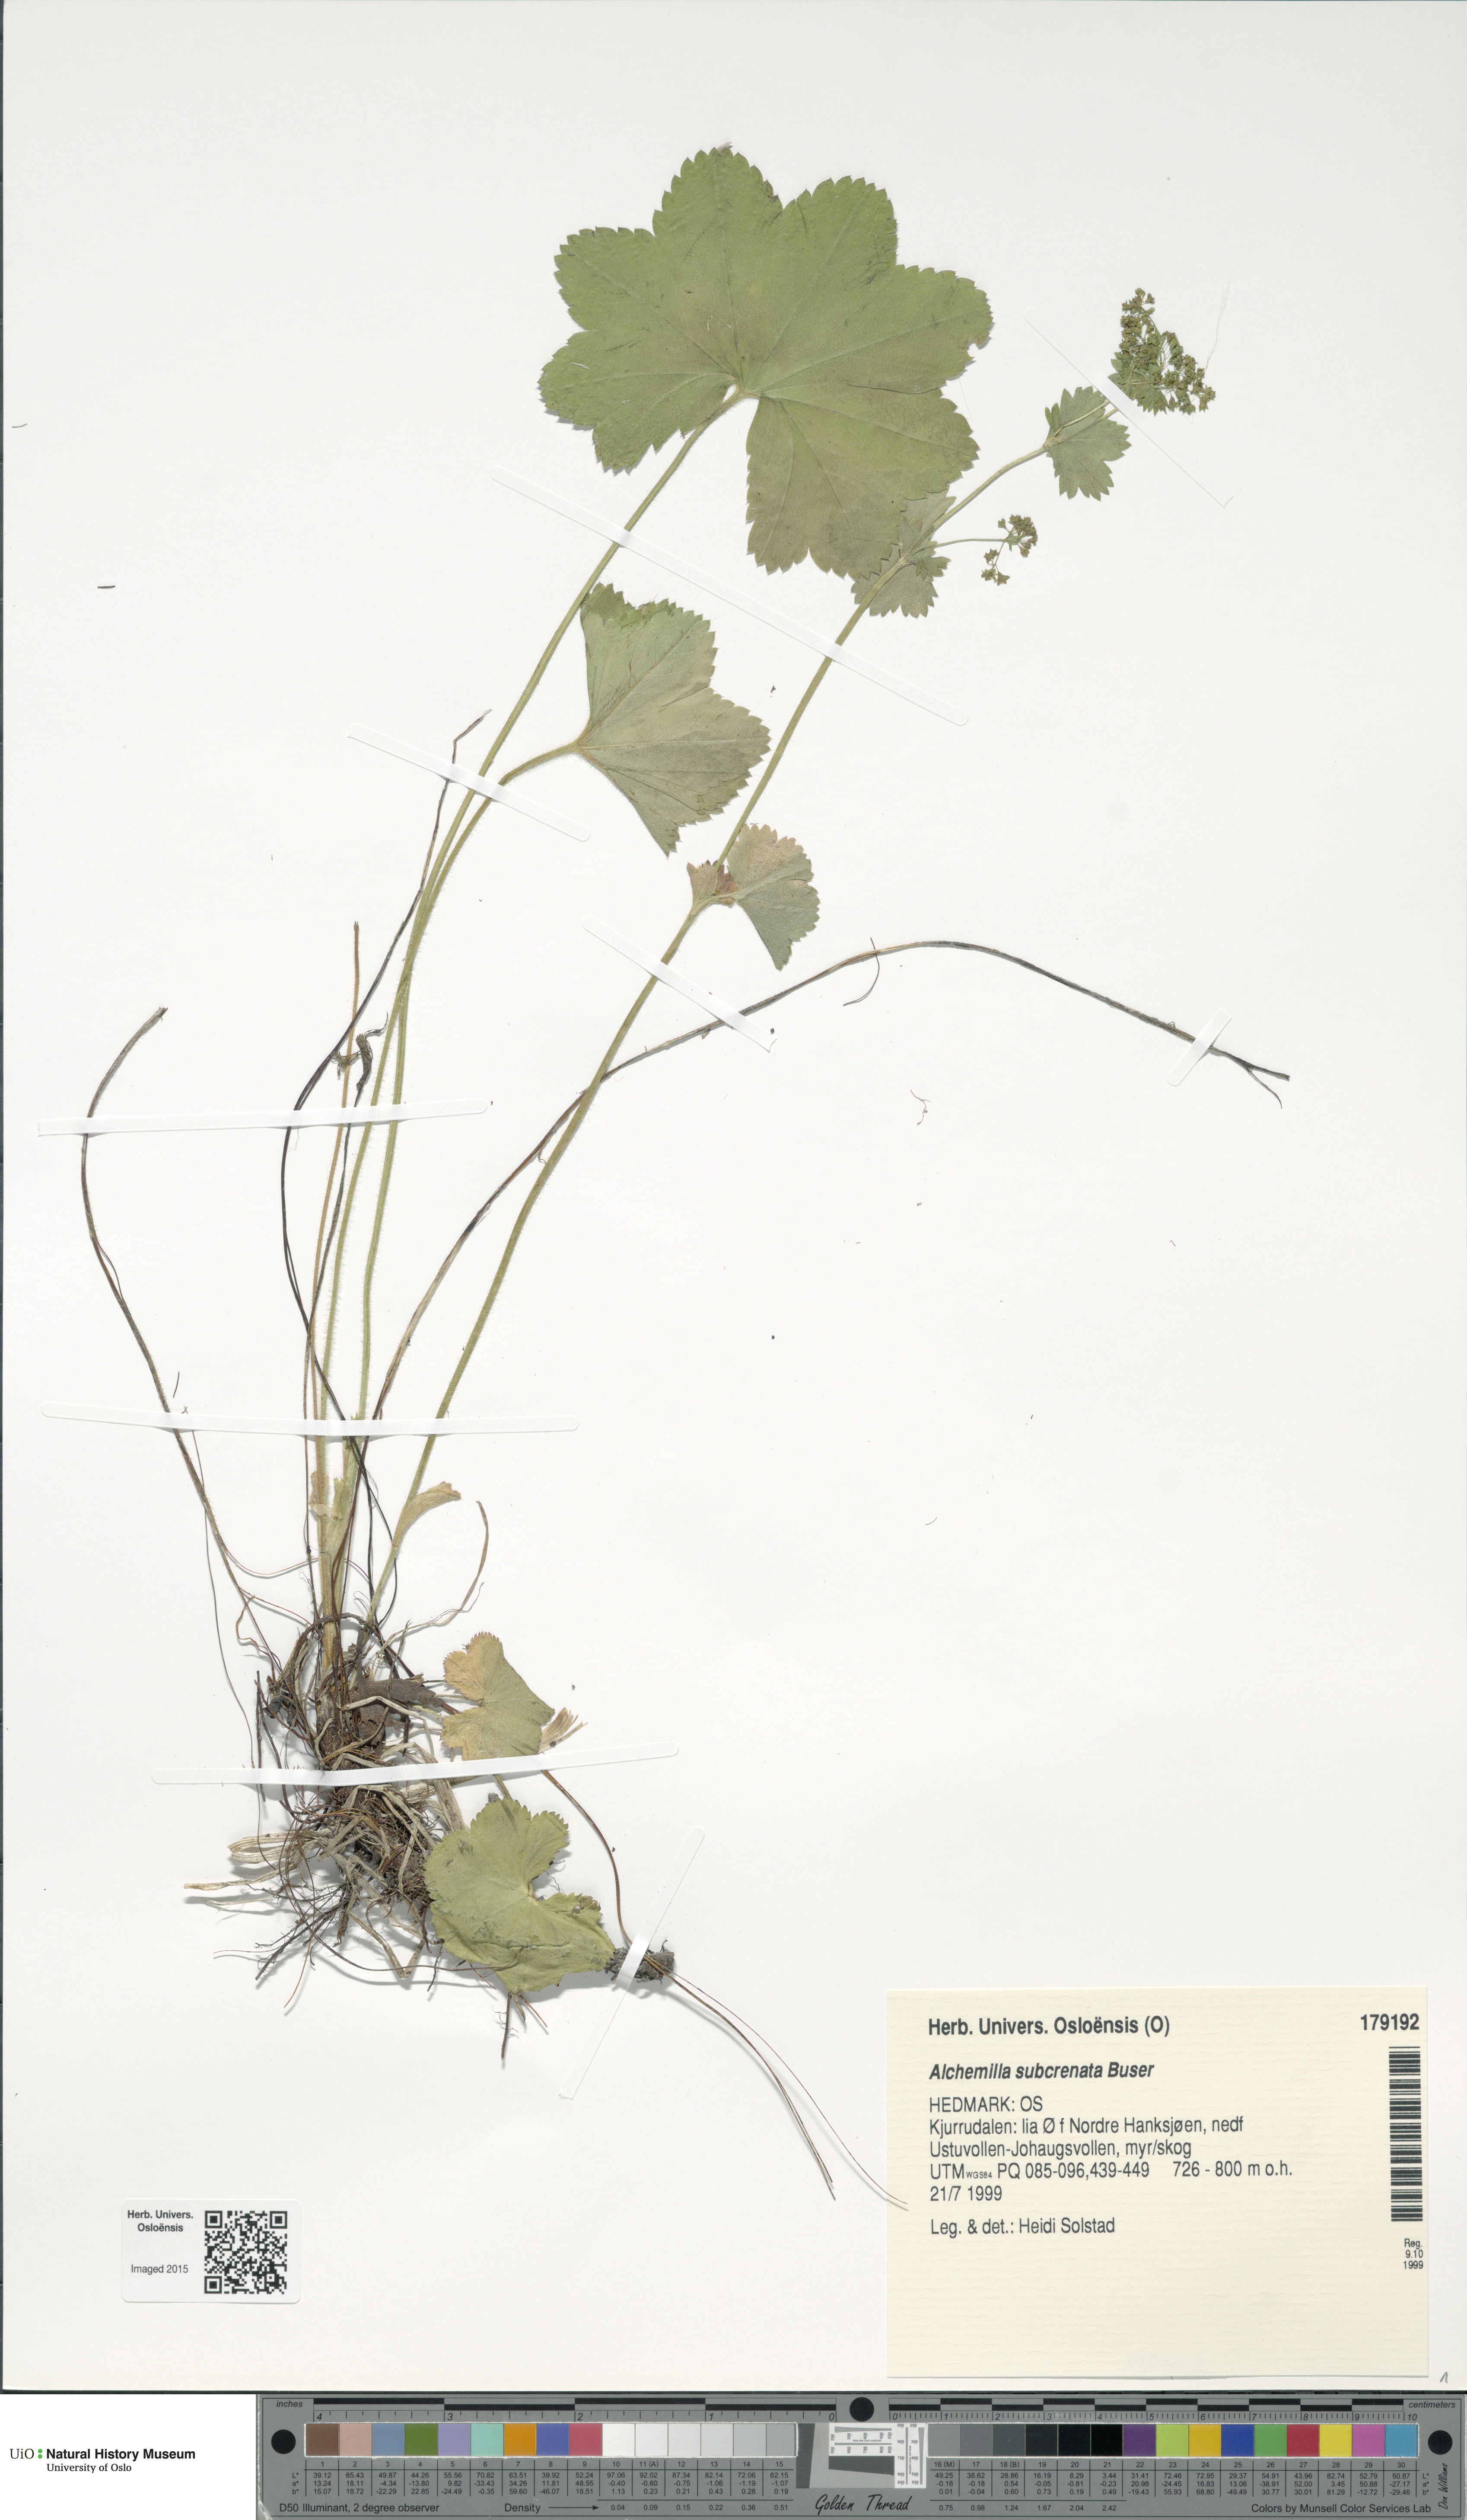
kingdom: Plantae
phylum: Tracheophyta
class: Magnoliopsida
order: Rosales
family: Rosaceae
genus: Alchemilla
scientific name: Alchemilla subcrenata
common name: Broadtooth lady's mantle
